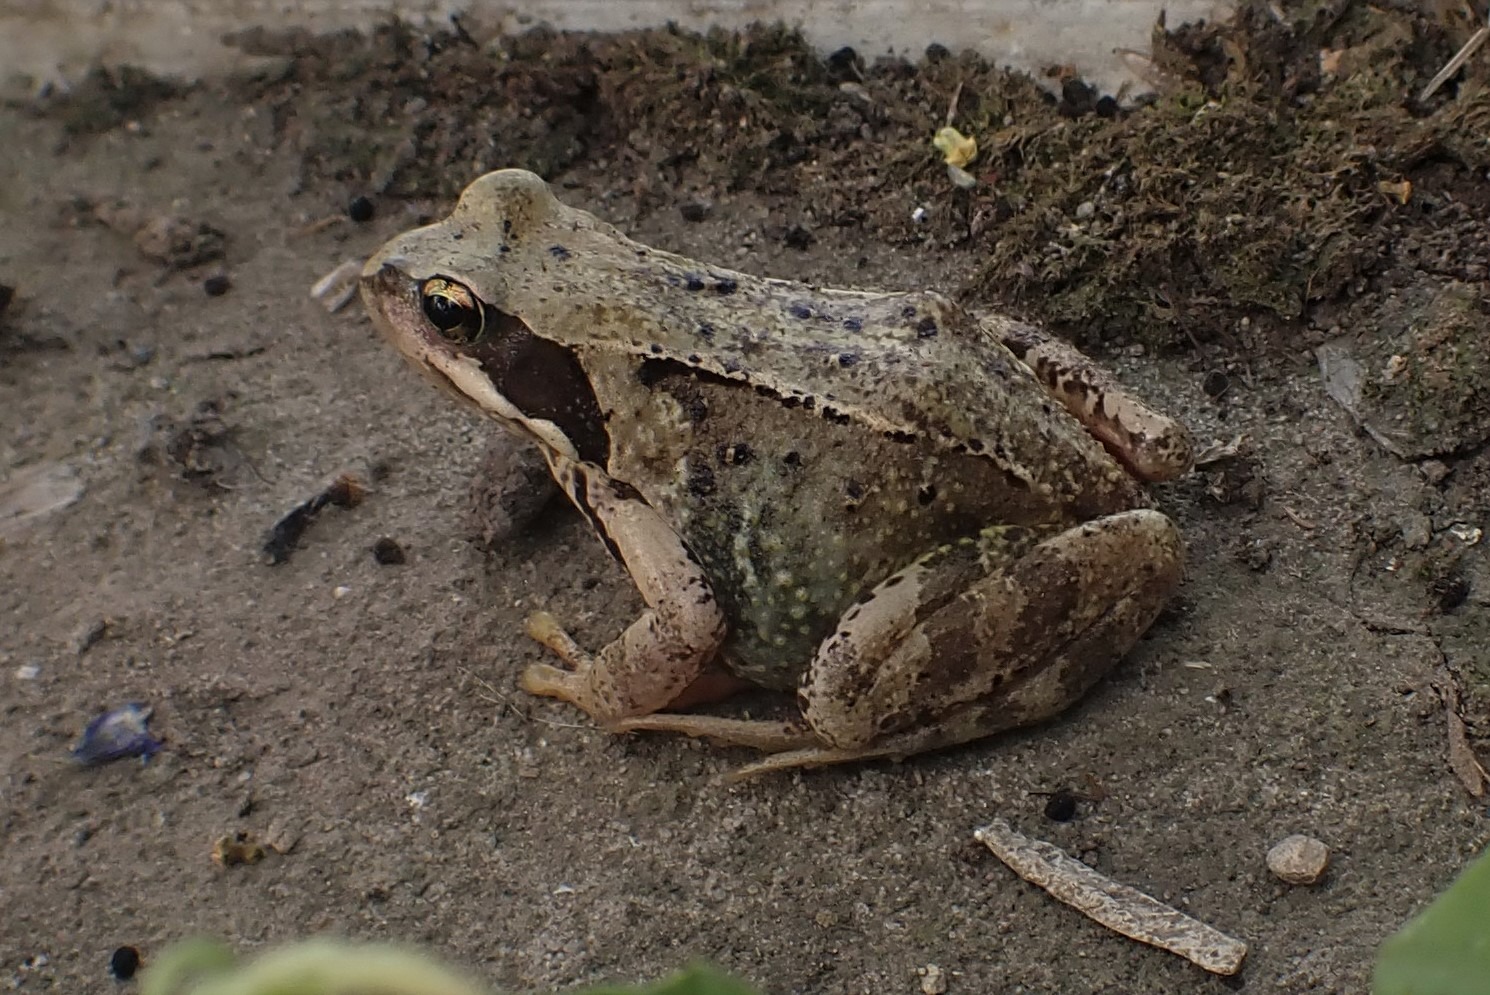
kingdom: Animalia
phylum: Chordata
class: Amphibia
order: Anura
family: Ranidae
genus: Rana
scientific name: Rana temporaria
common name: Butsnudet frø
